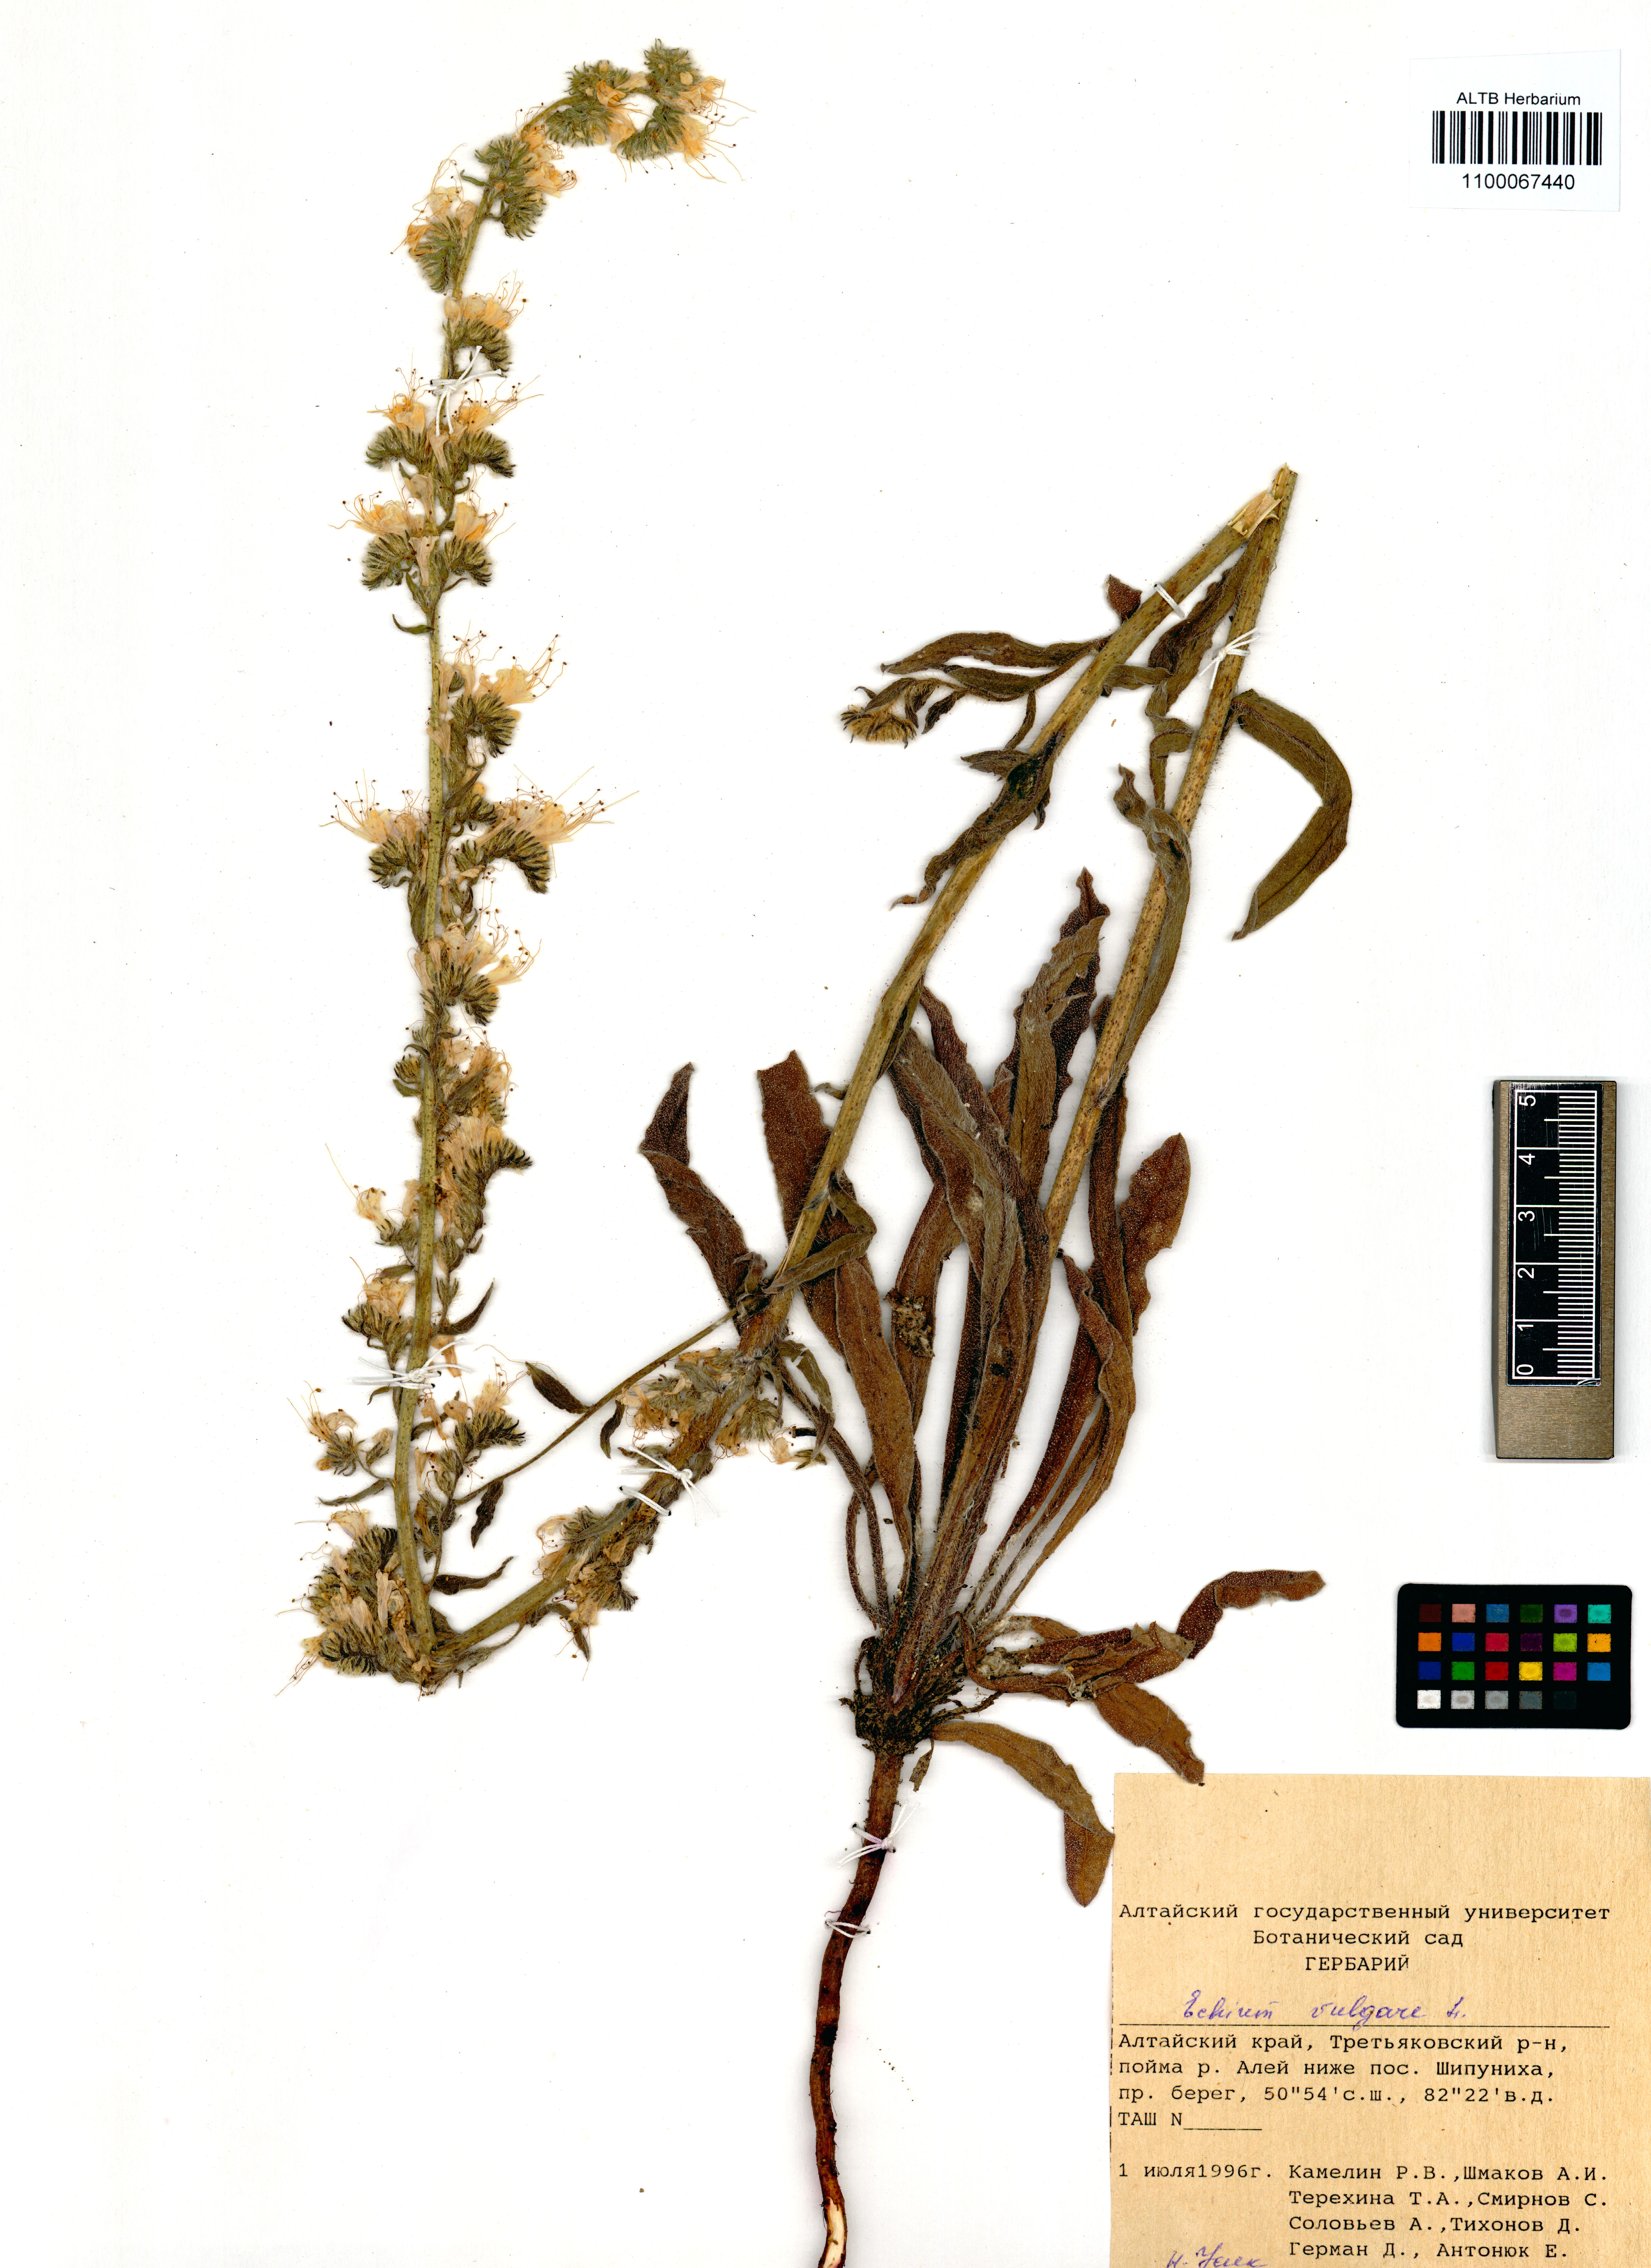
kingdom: Plantae
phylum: Tracheophyta
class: Magnoliopsida
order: Boraginales
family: Boraginaceae
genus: Echium
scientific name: Echium vulgare
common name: Common viper's bugloss
